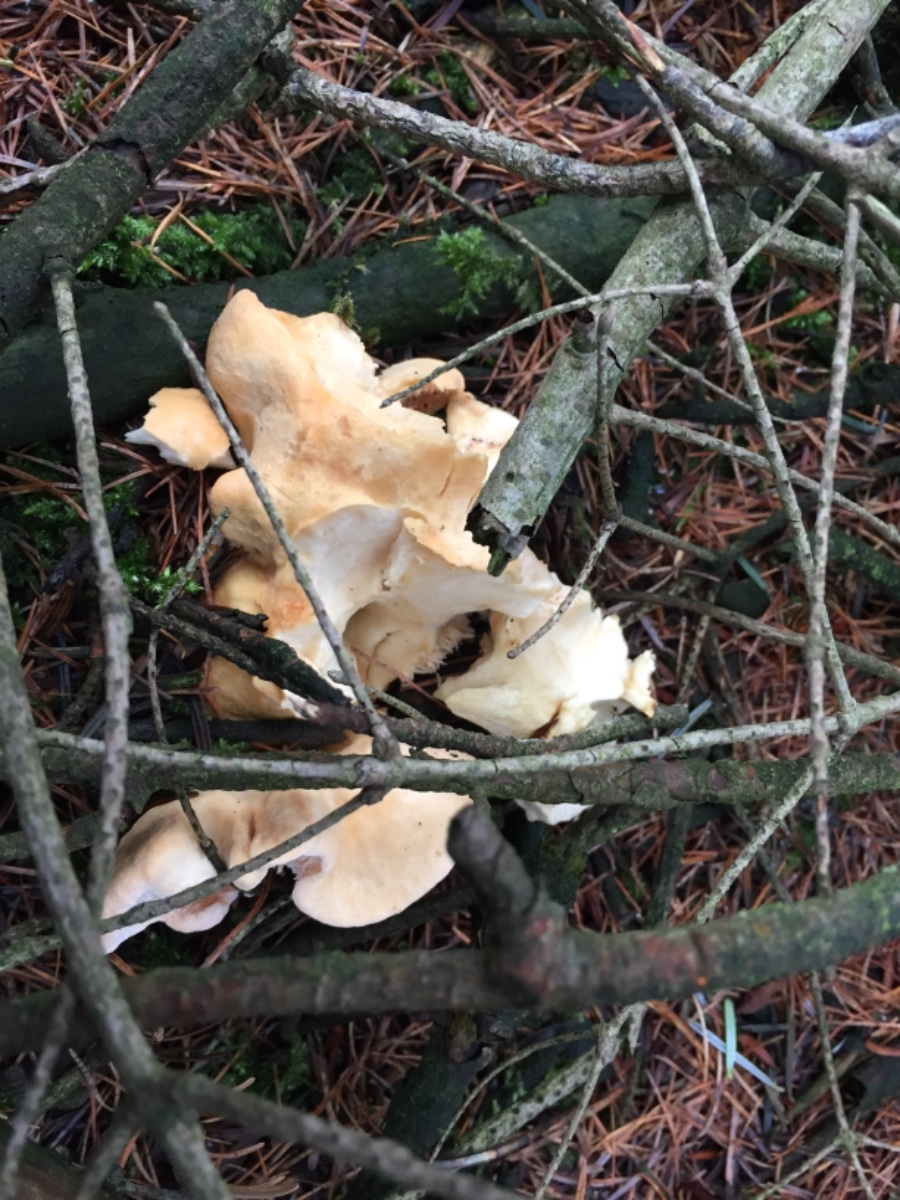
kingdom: Fungi
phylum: Basidiomycota
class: Agaricomycetes
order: Cantharellales
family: Hydnaceae
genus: Hydnum
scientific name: Hydnum repandum
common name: almindelig pigsvamp
